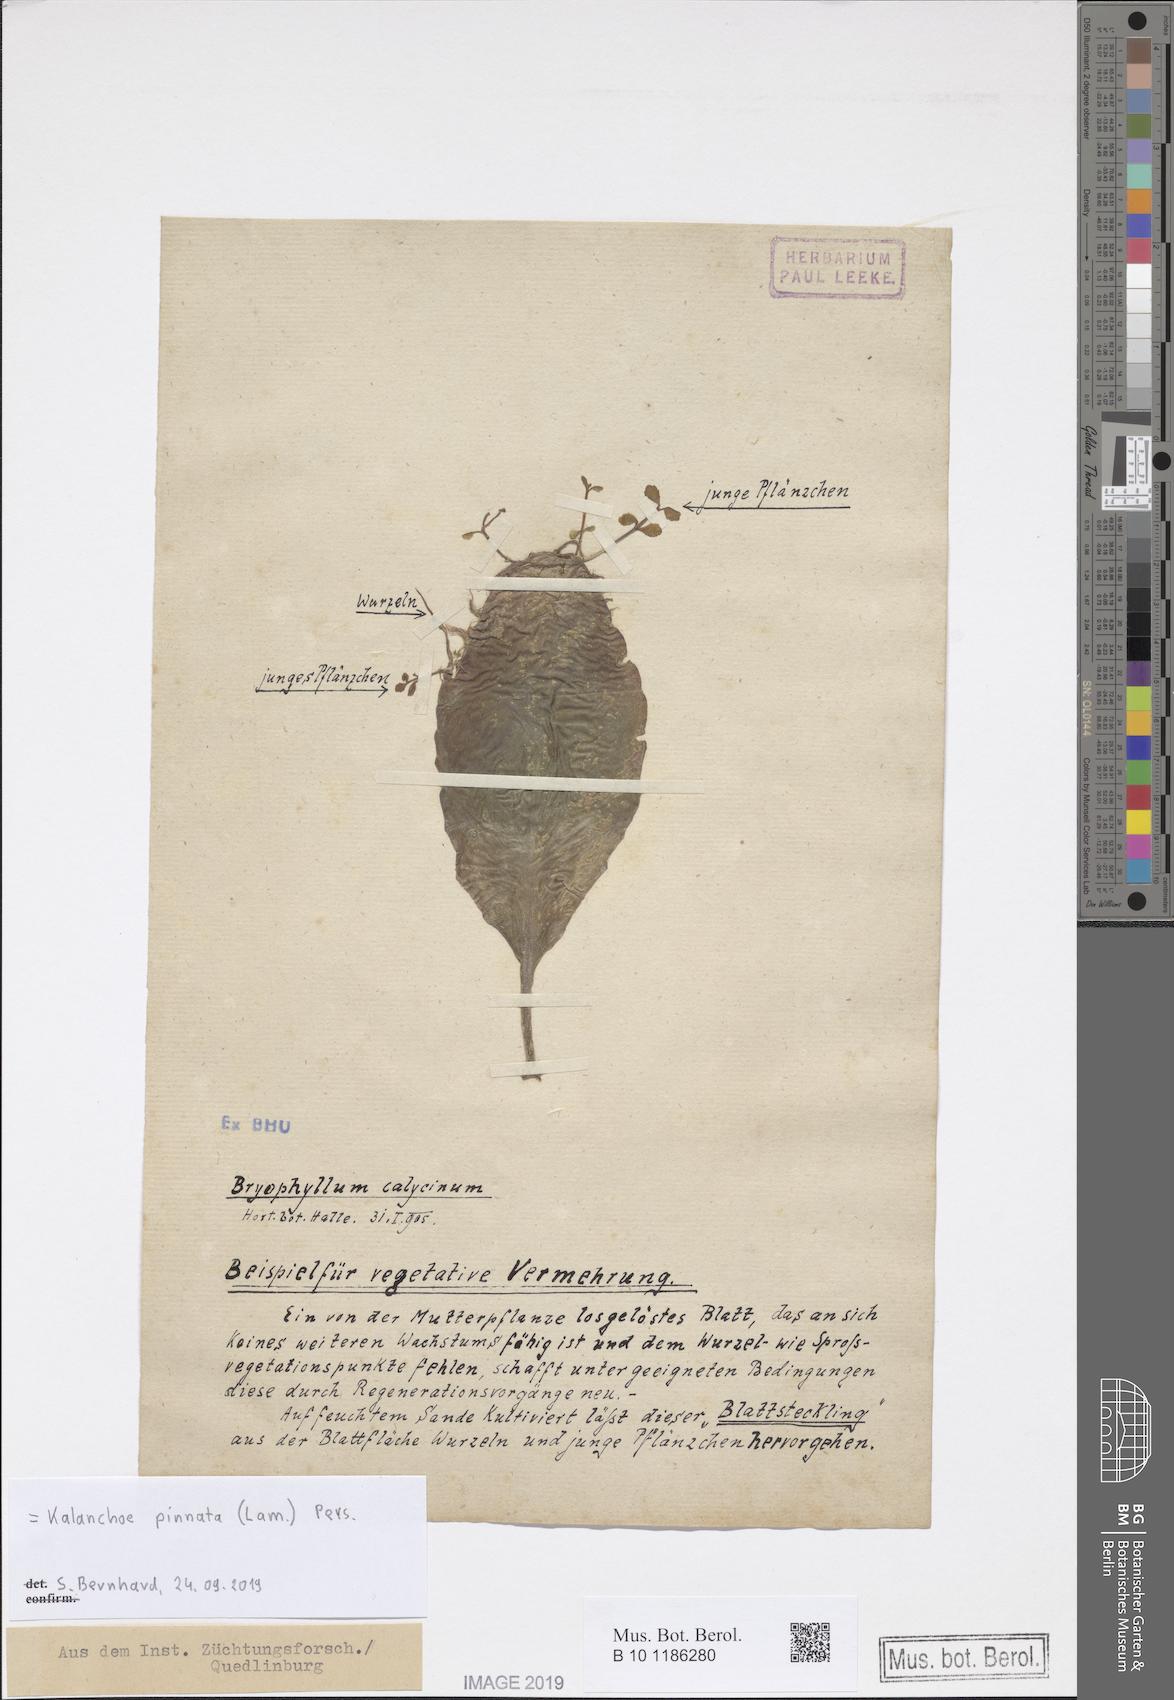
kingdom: Plantae
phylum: Tracheophyta
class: Magnoliopsida
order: Saxifragales
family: Crassulaceae
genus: Kalanchoe
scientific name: Kalanchoe pinnata
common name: Cathedral bells
